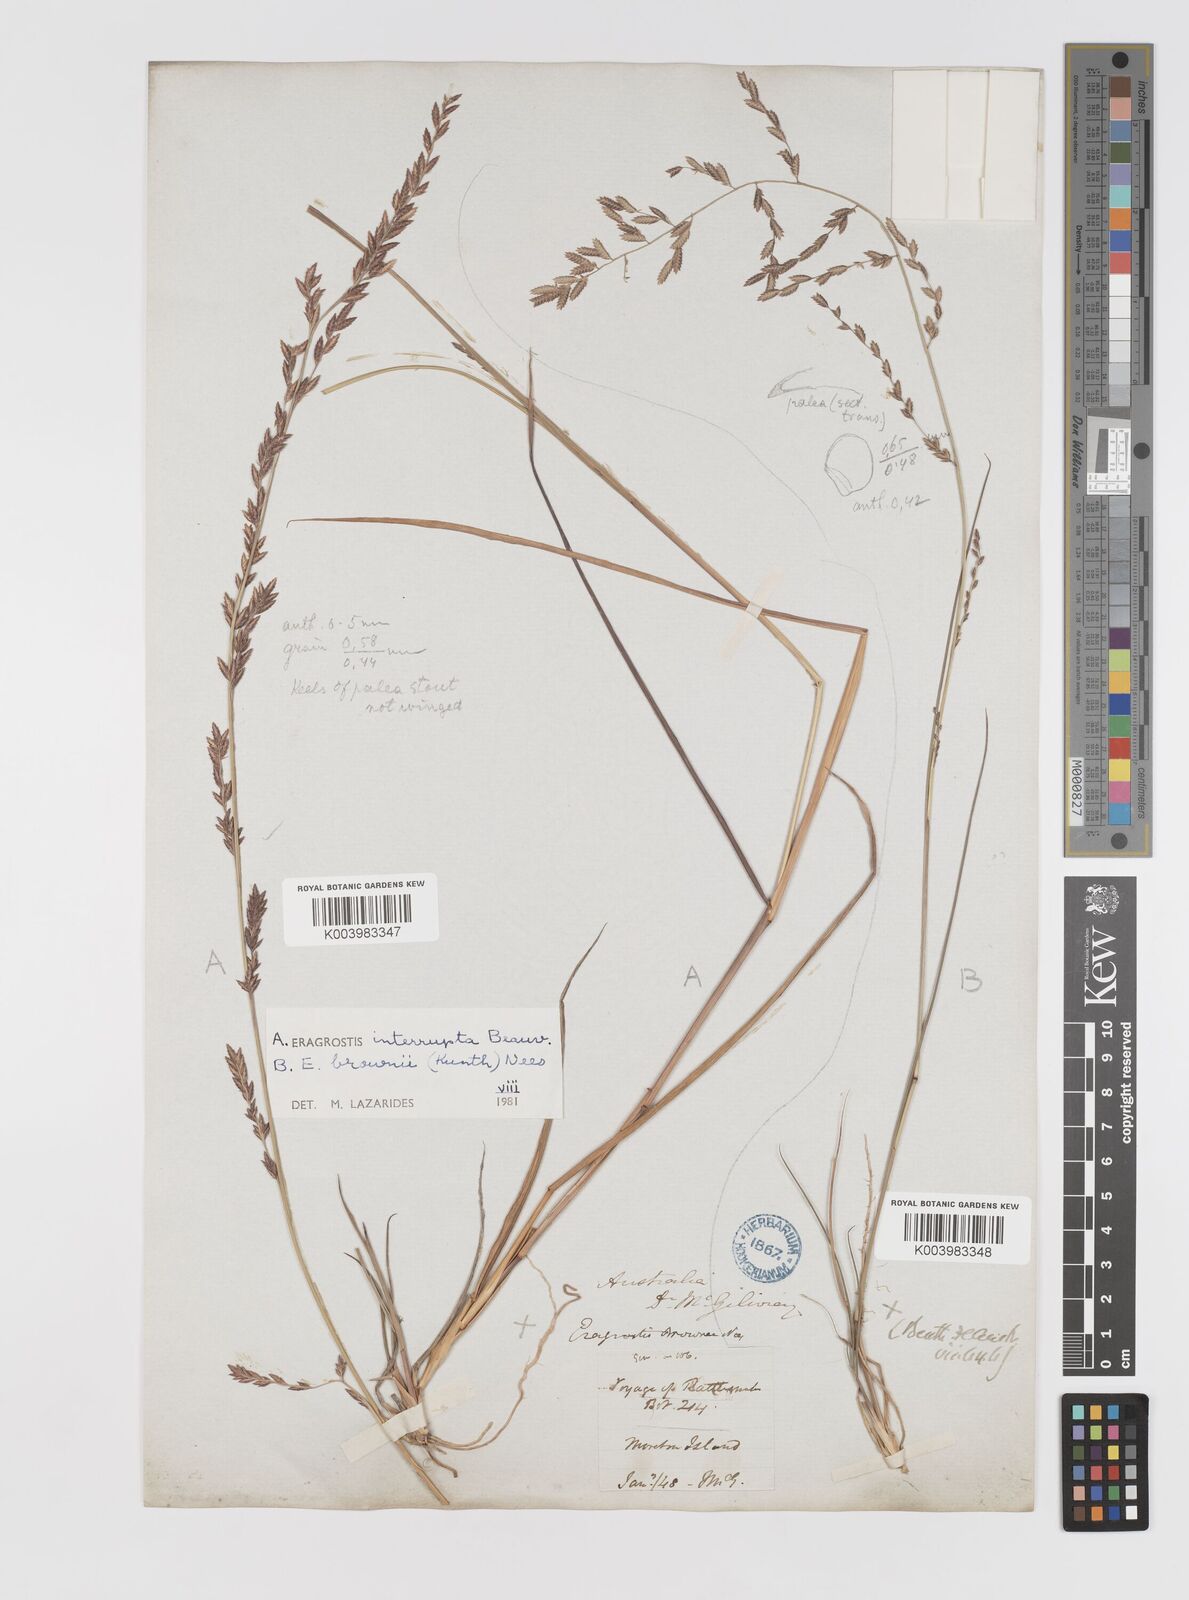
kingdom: Plantae
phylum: Tracheophyta
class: Liliopsida
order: Poales
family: Poaceae
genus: Eragrostis
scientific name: Eragrostis interrupta
